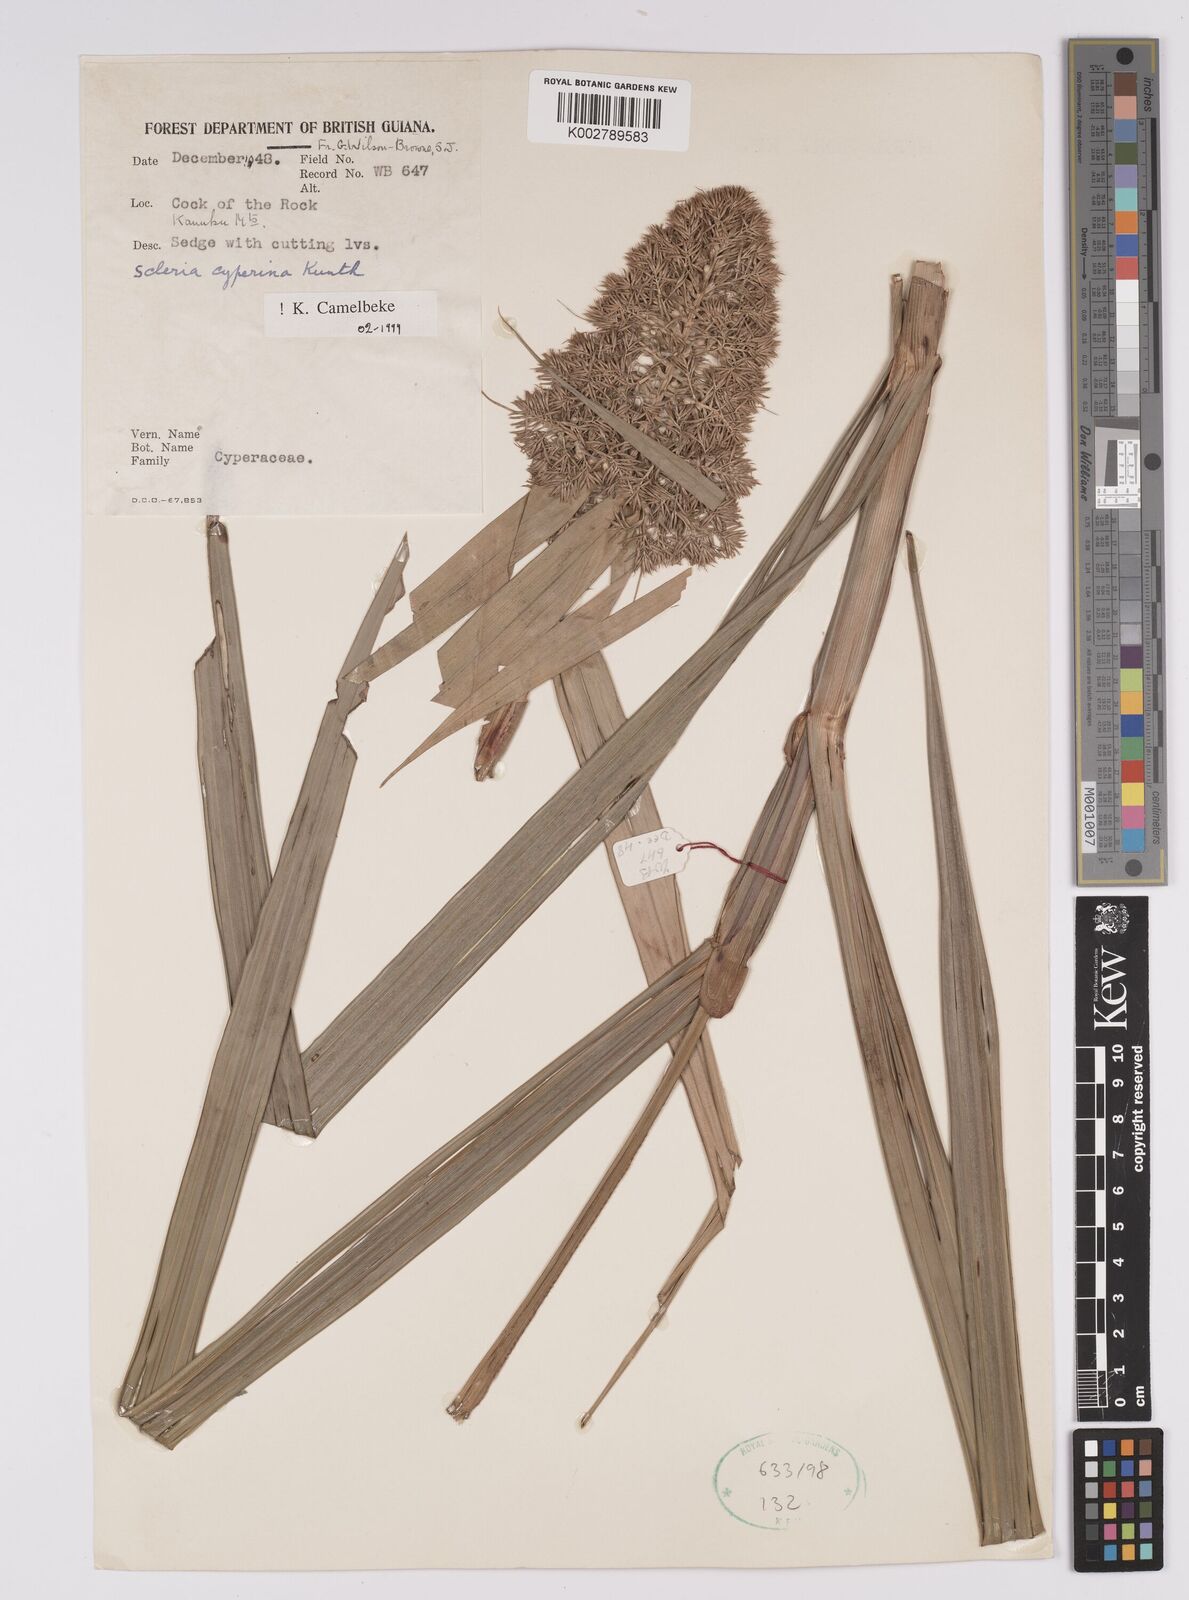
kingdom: Plantae
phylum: Tracheophyta
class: Liliopsida
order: Poales
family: Cyperaceae
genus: Scleria
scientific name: Scleria cyperina
